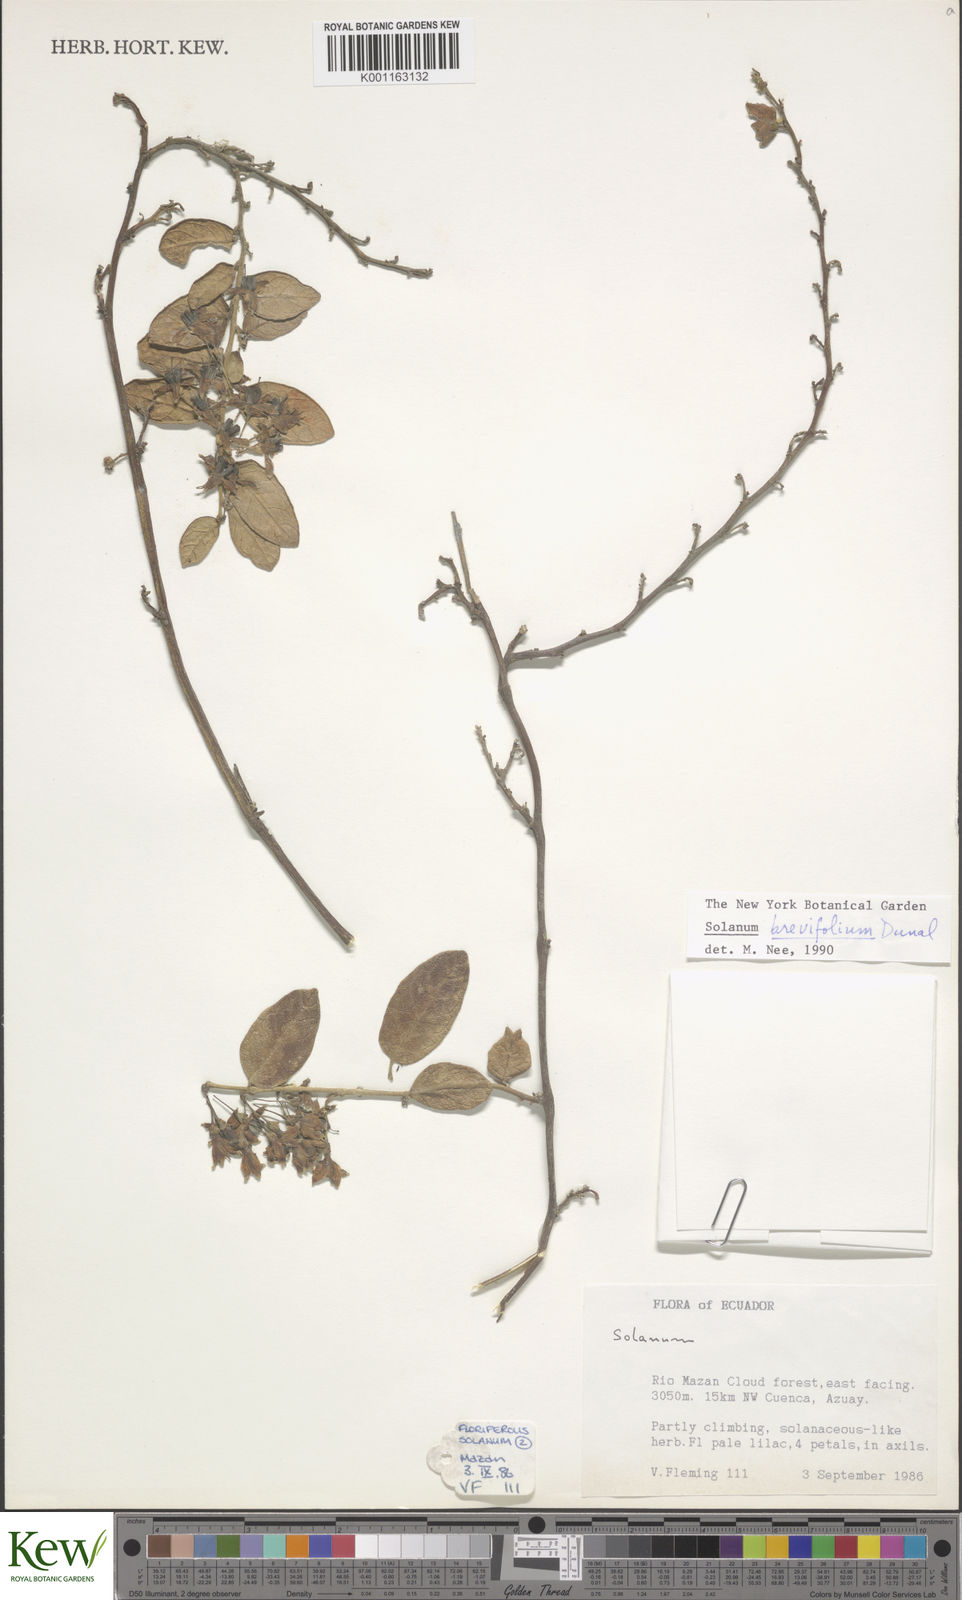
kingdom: Plantae
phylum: Tracheophyta
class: Magnoliopsida
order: Solanales
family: Solanaceae
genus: Solanum
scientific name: Solanum brevifolium
